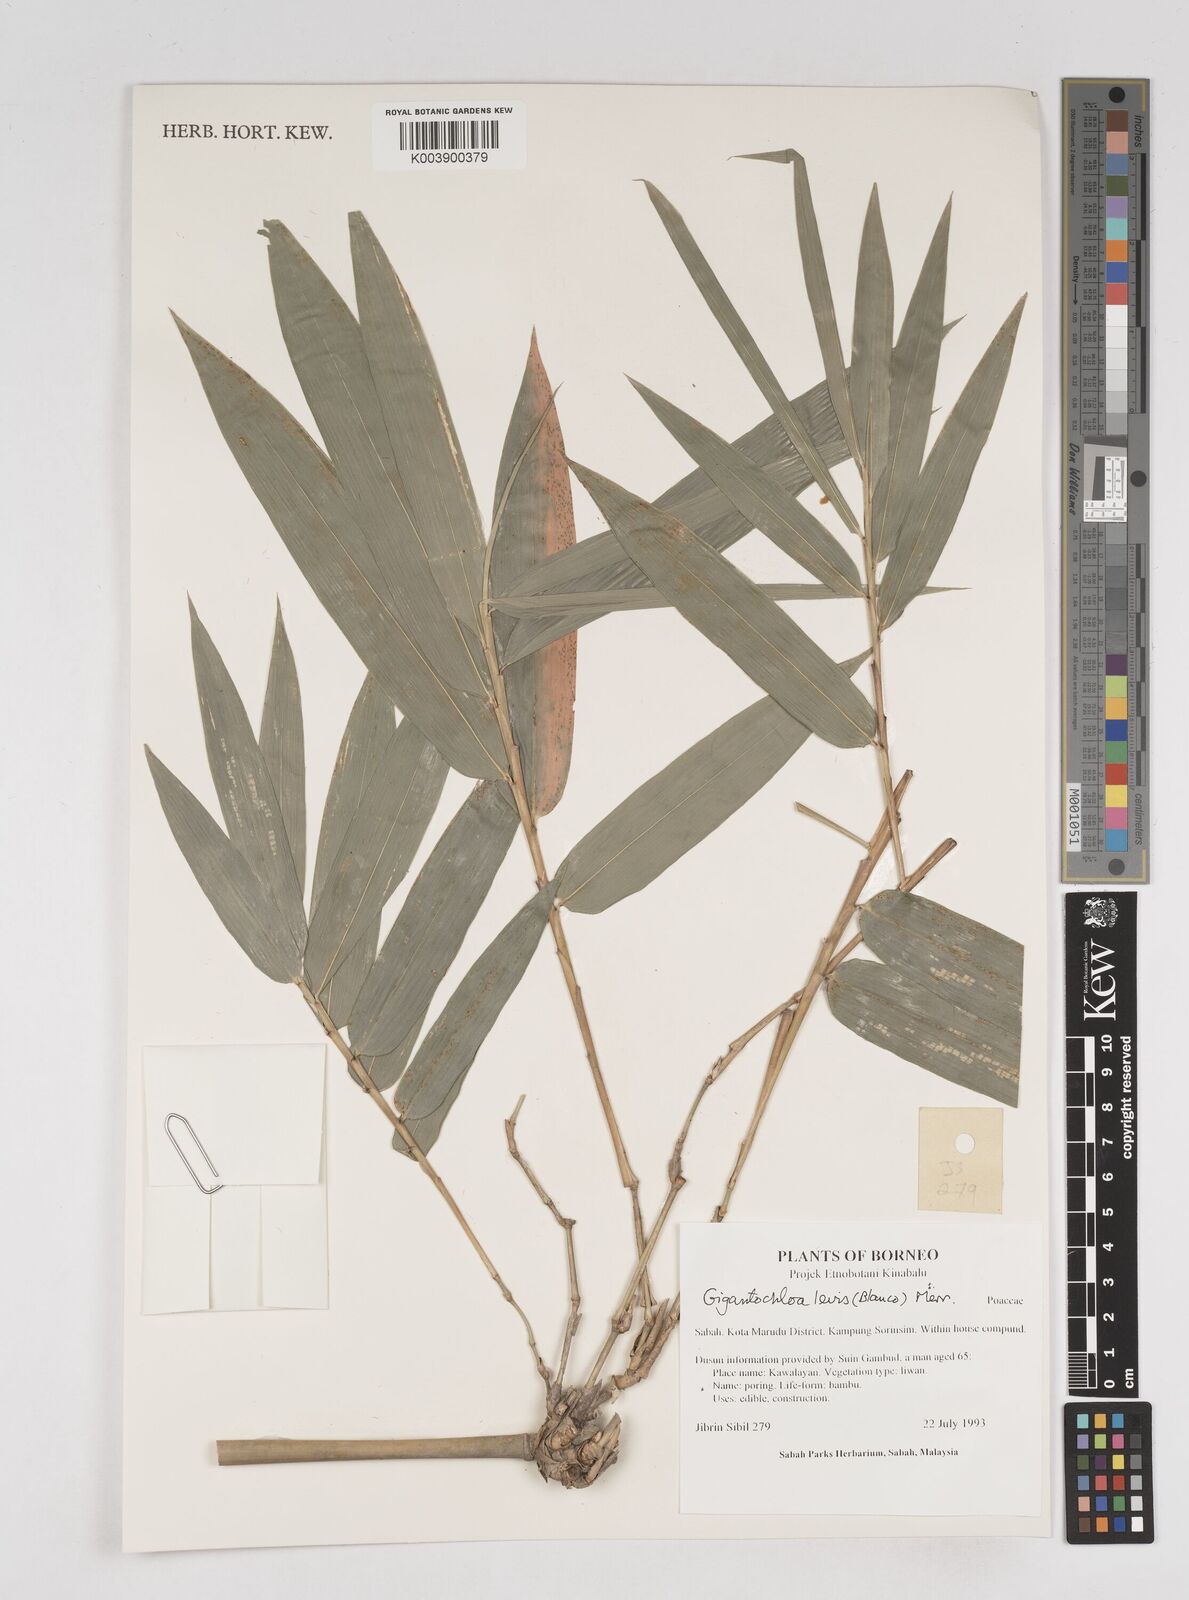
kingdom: Plantae
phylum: Tracheophyta
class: Liliopsida
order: Poales
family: Poaceae
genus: Gigantochloa
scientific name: Gigantochloa levis
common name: Smooth-shoot gigantochloa
